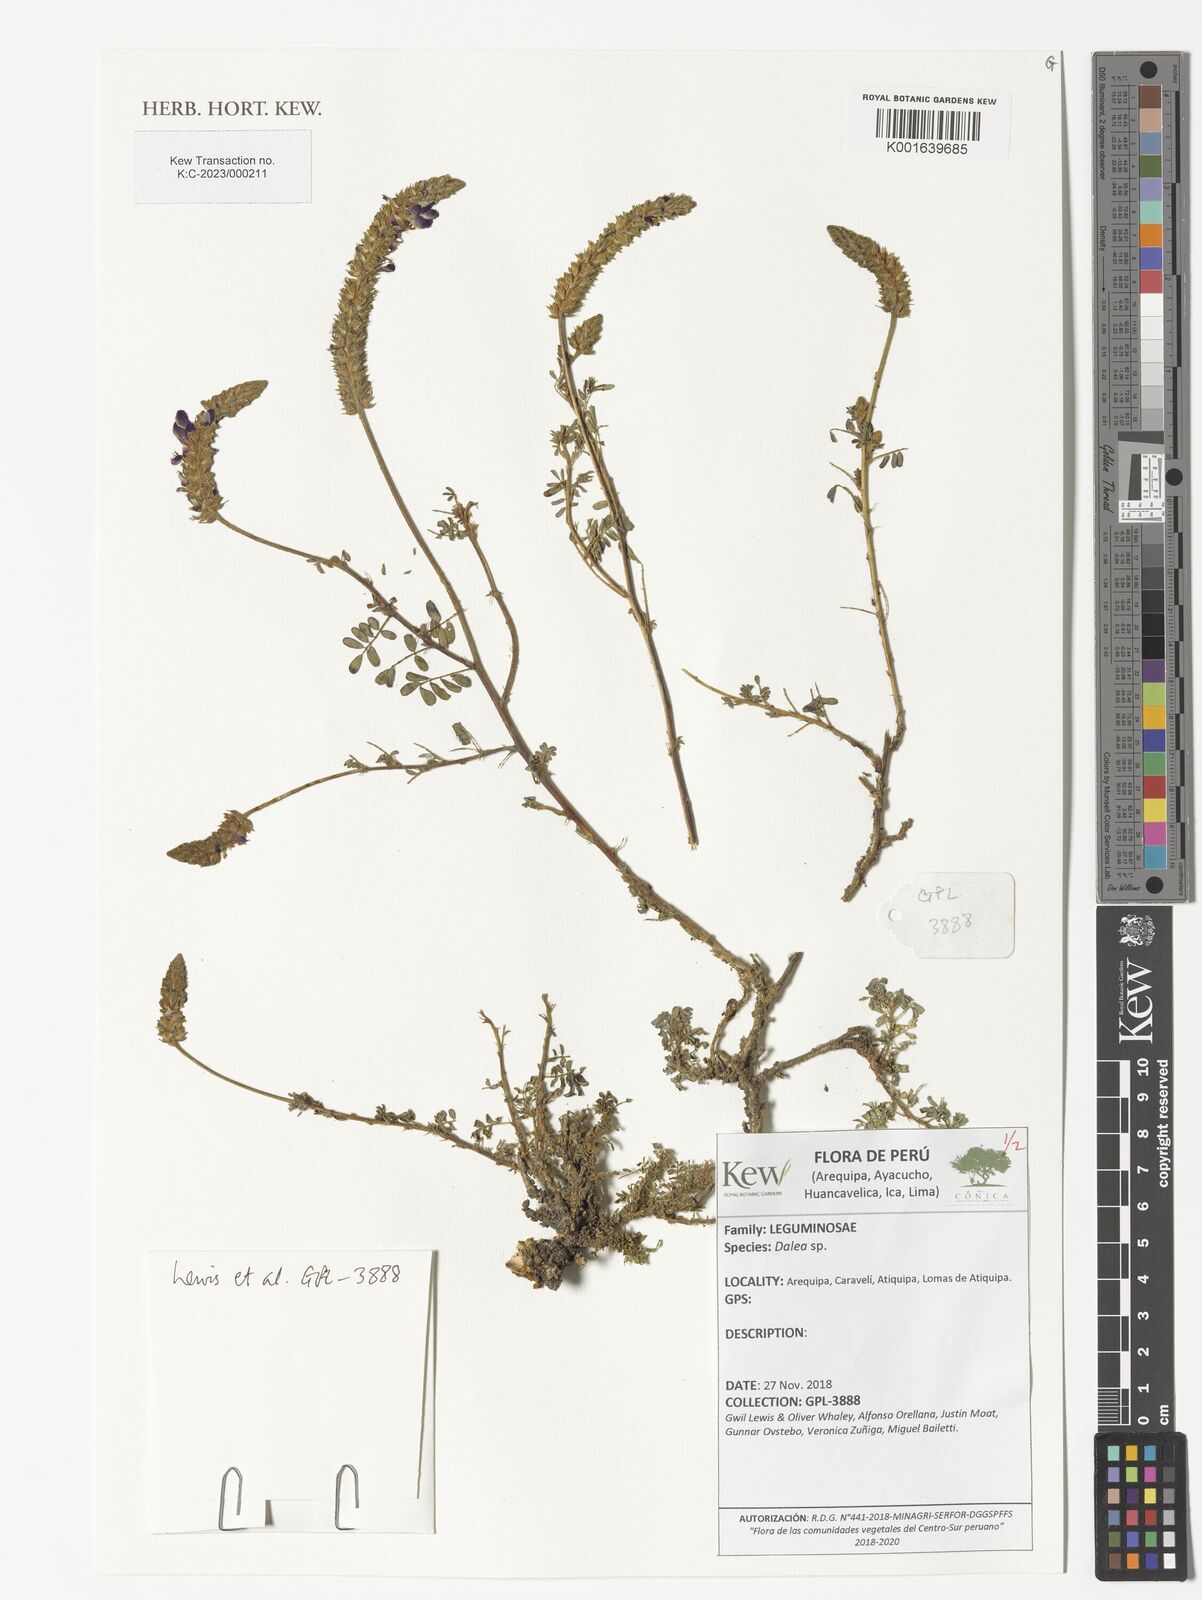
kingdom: Plantae
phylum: Tracheophyta
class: Magnoliopsida
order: Fabales
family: Fabaceae
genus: Dalea
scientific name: Dalea
